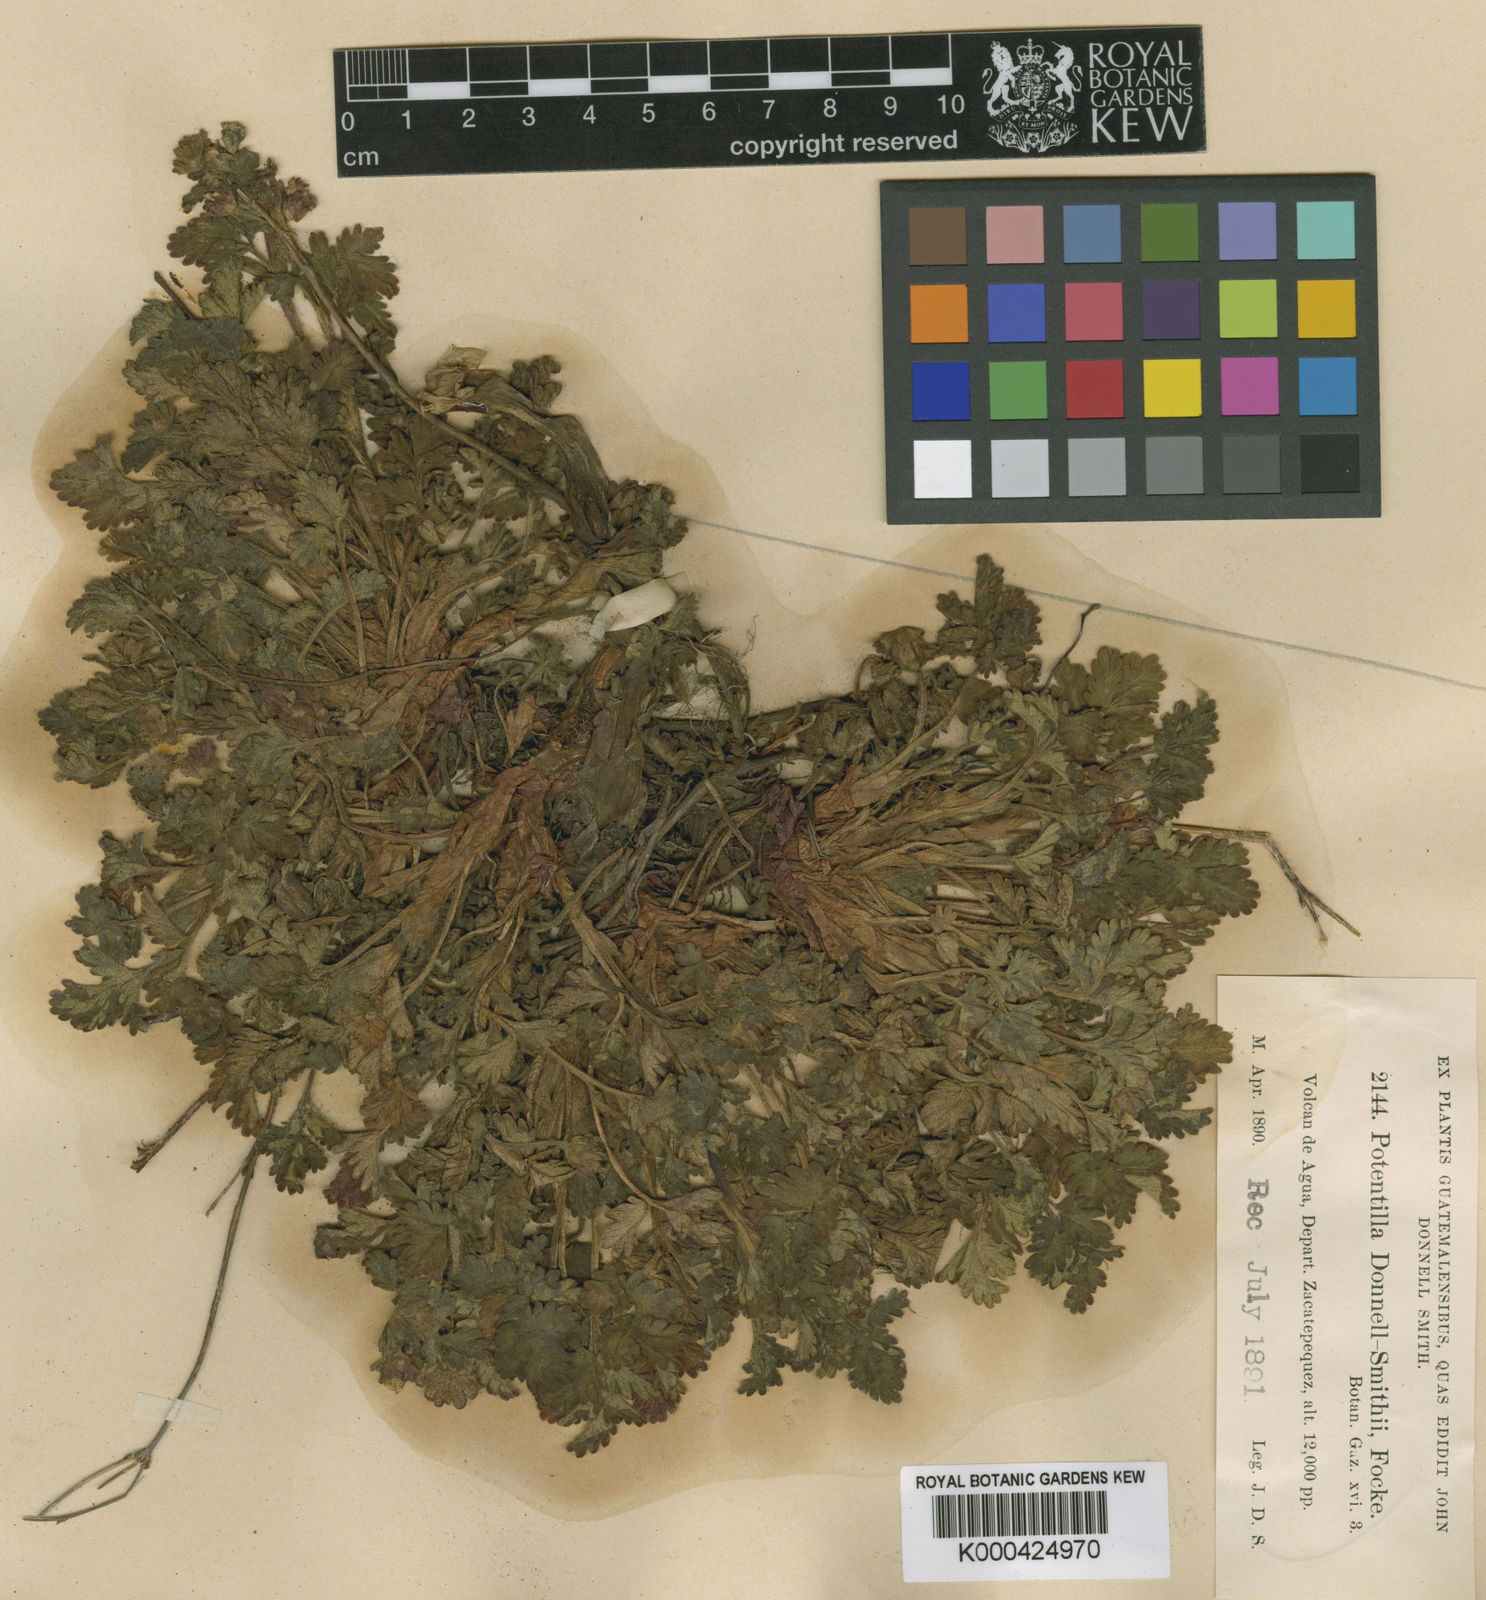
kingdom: Plantae
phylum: Tracheophyta
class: Magnoliopsida
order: Rosales
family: Rosaceae
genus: Potentilla
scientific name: Potentilla heterosepala
